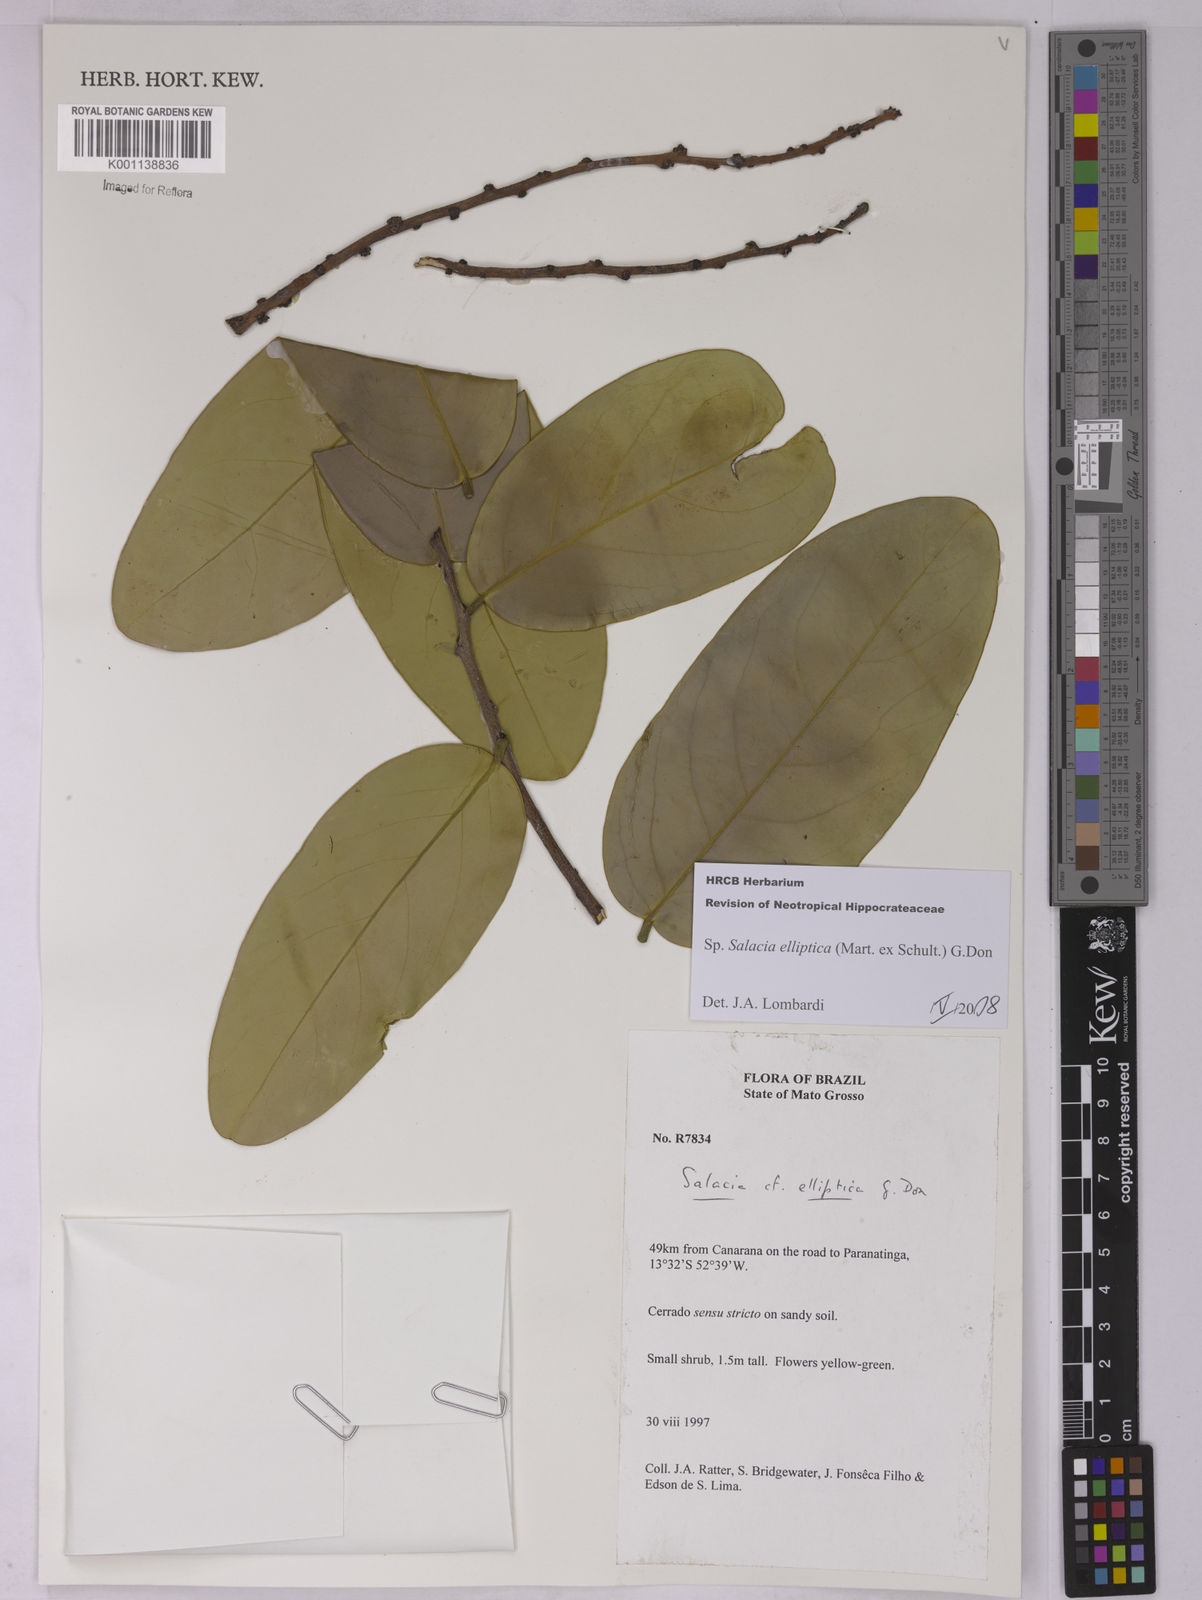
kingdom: Plantae
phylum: Tracheophyta
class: Magnoliopsida
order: Celastrales
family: Celastraceae
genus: Salacia
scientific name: Salacia elliptica
